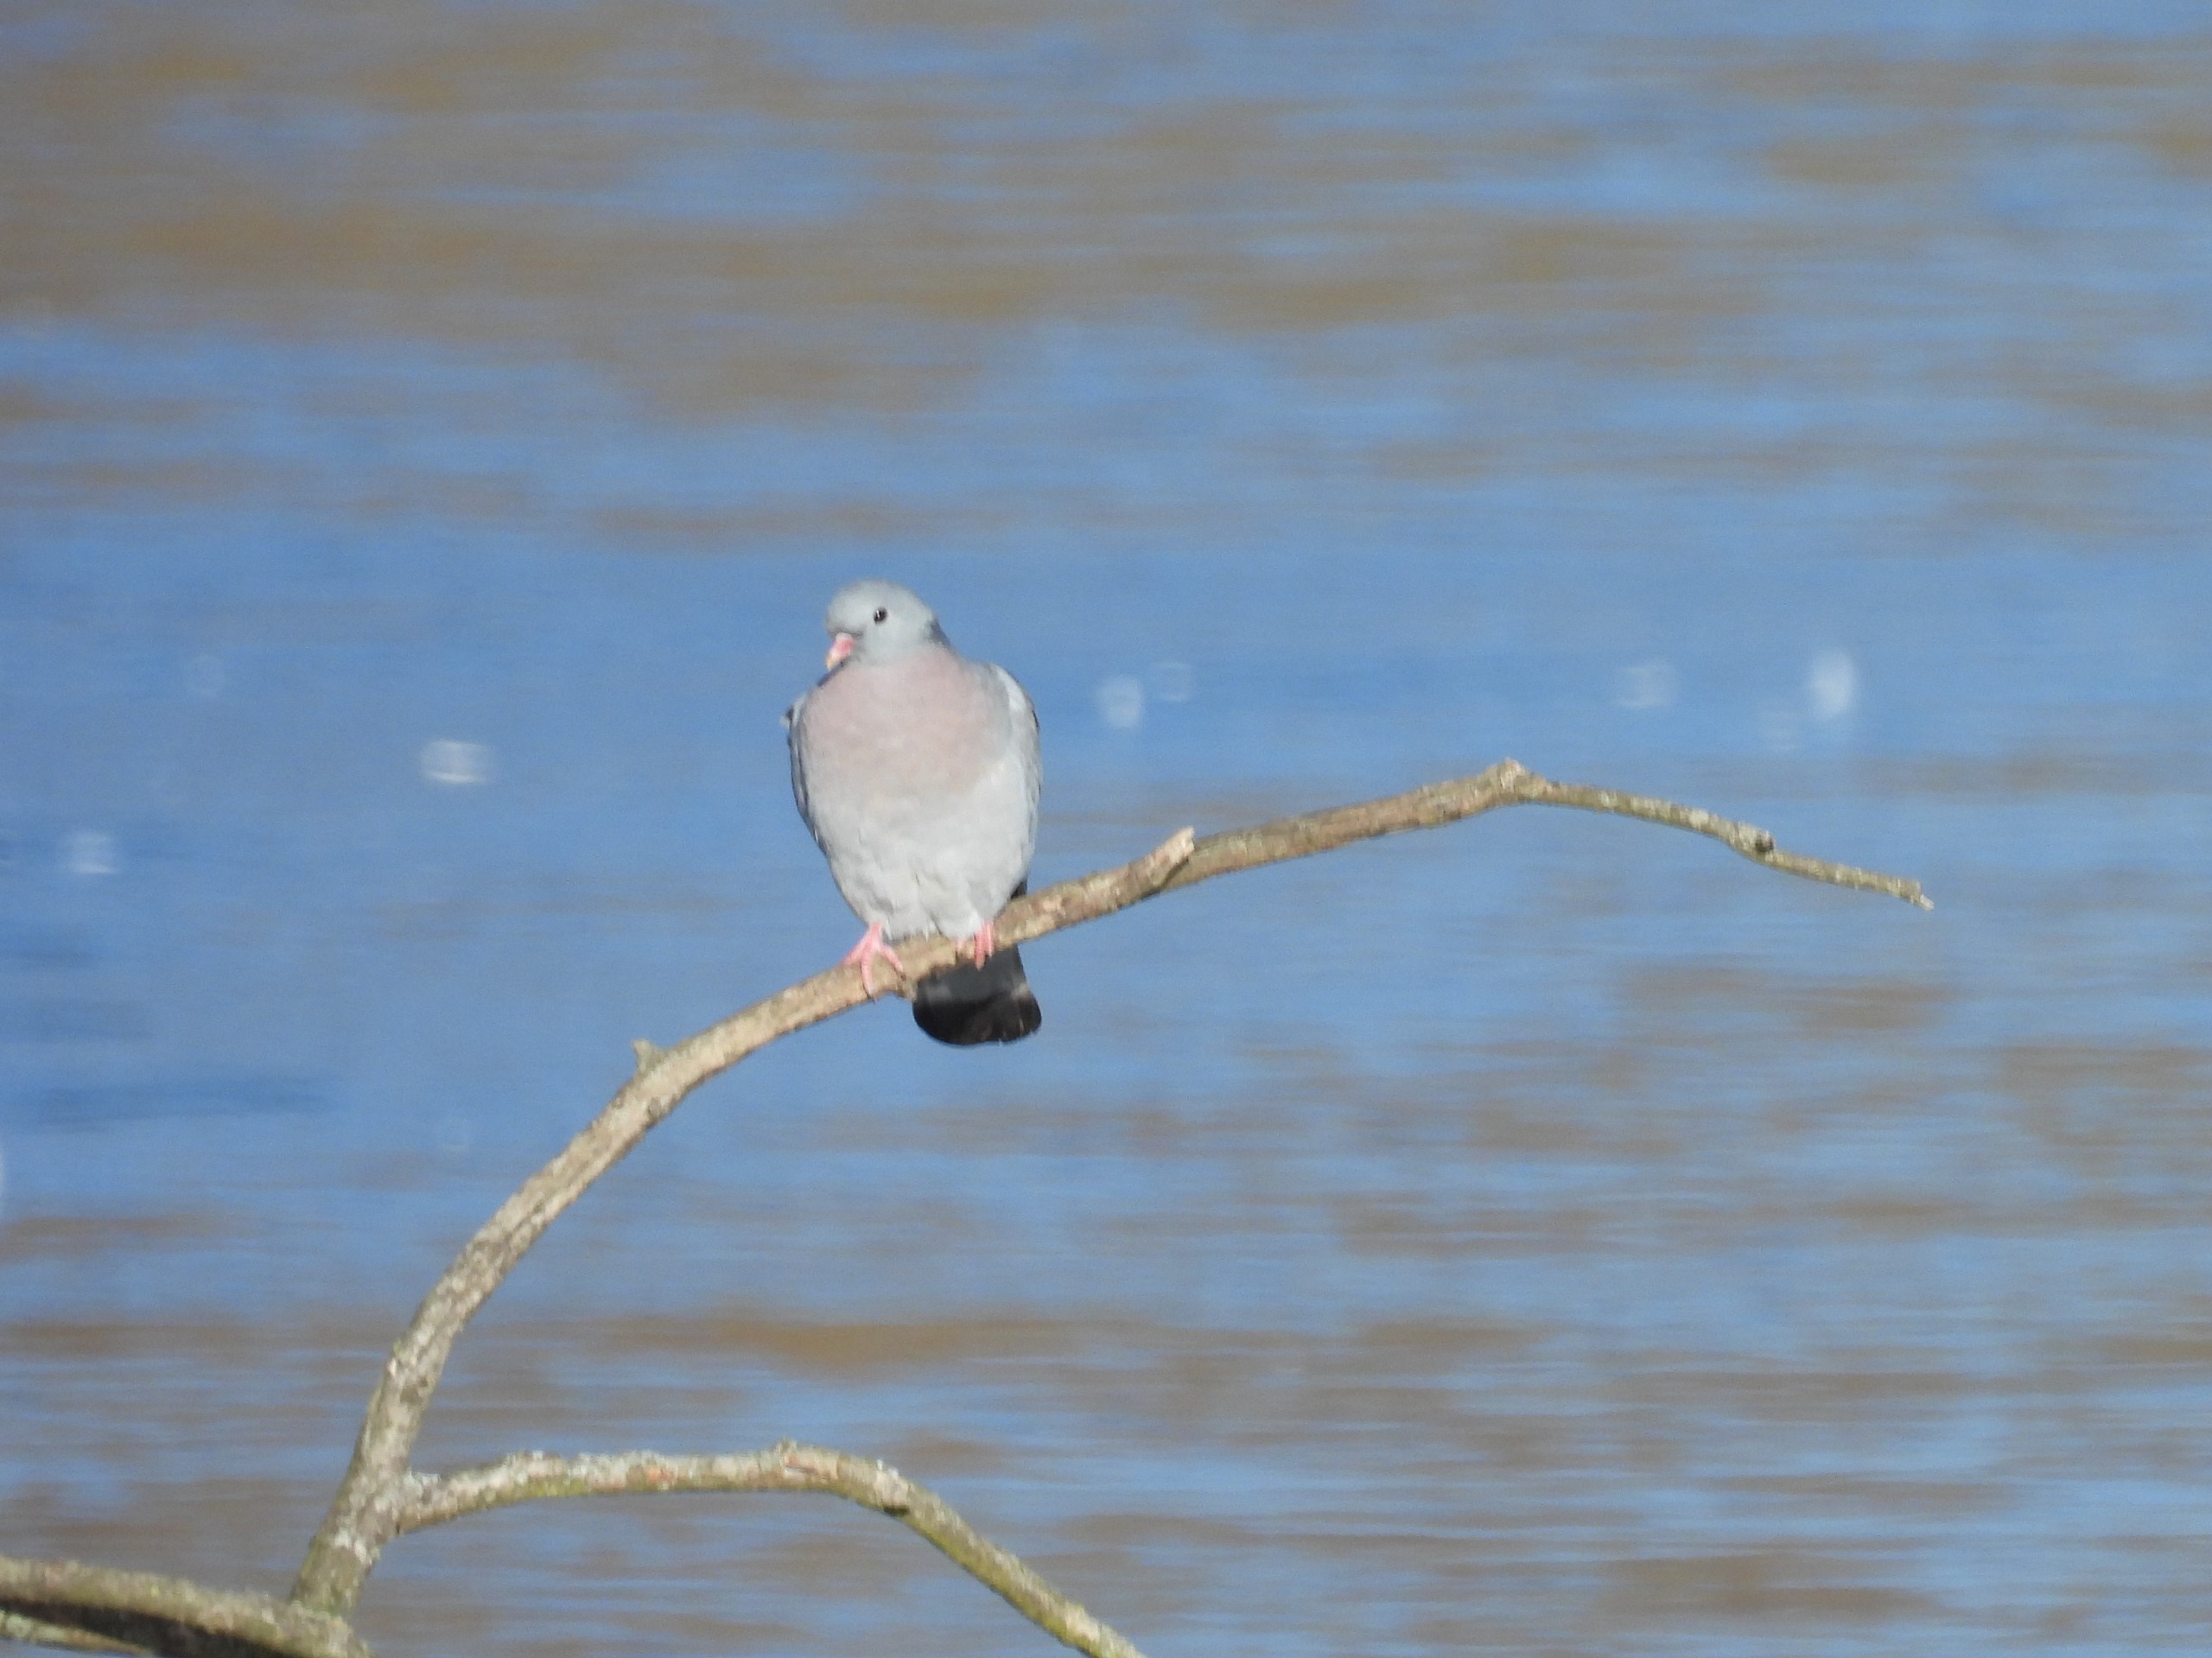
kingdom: Animalia
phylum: Chordata
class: Aves
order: Columbiformes
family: Columbidae
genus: Columba
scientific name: Columba oenas
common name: Huldue
